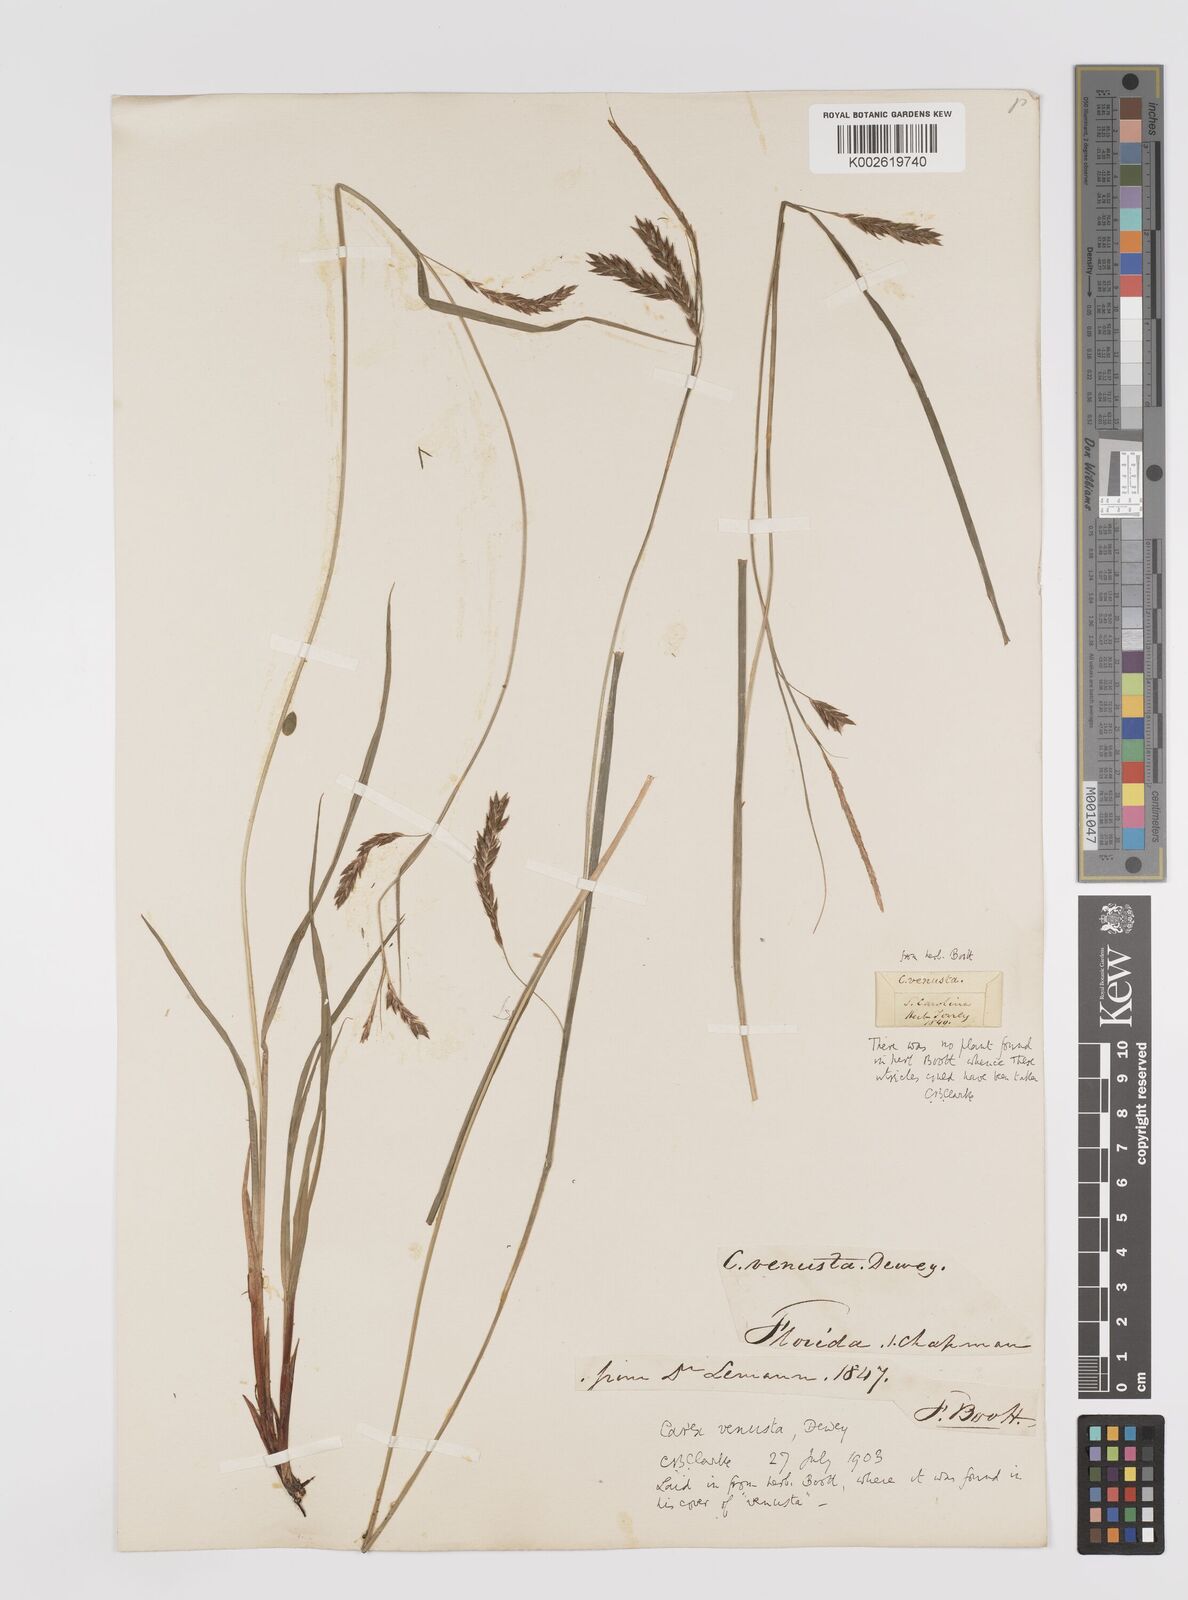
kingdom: Plantae
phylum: Tracheophyta
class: Liliopsida
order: Poales
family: Cyperaceae
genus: Carex
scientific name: Carex venusta
